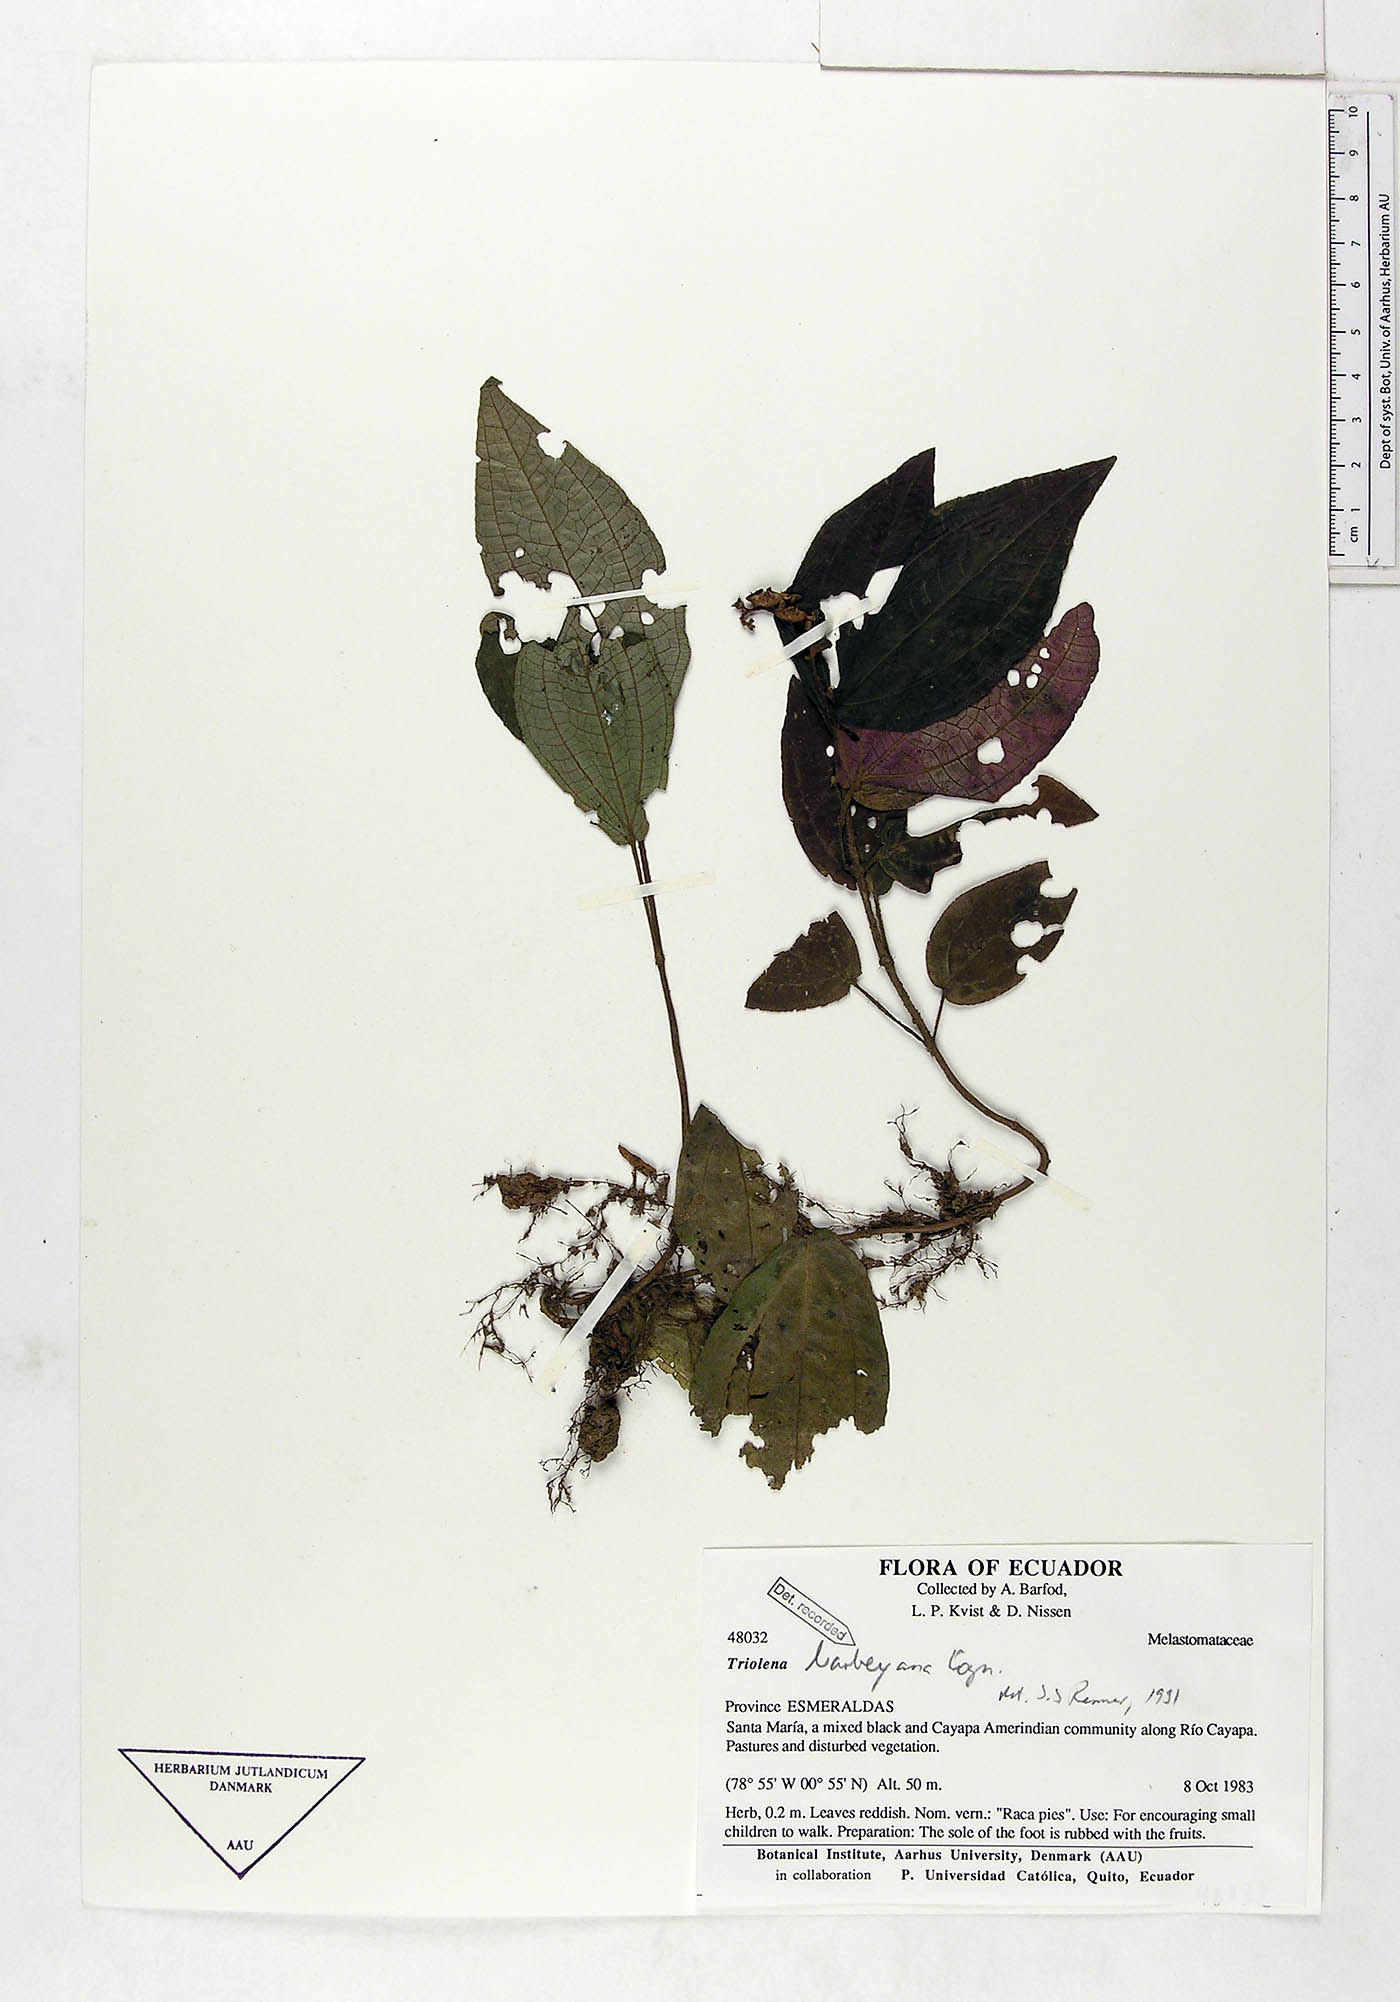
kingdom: Plantae
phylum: Tracheophyta
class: Magnoliopsida
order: Myrtales
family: Melastomataceae
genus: Triolena
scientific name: Triolena barbeyana
